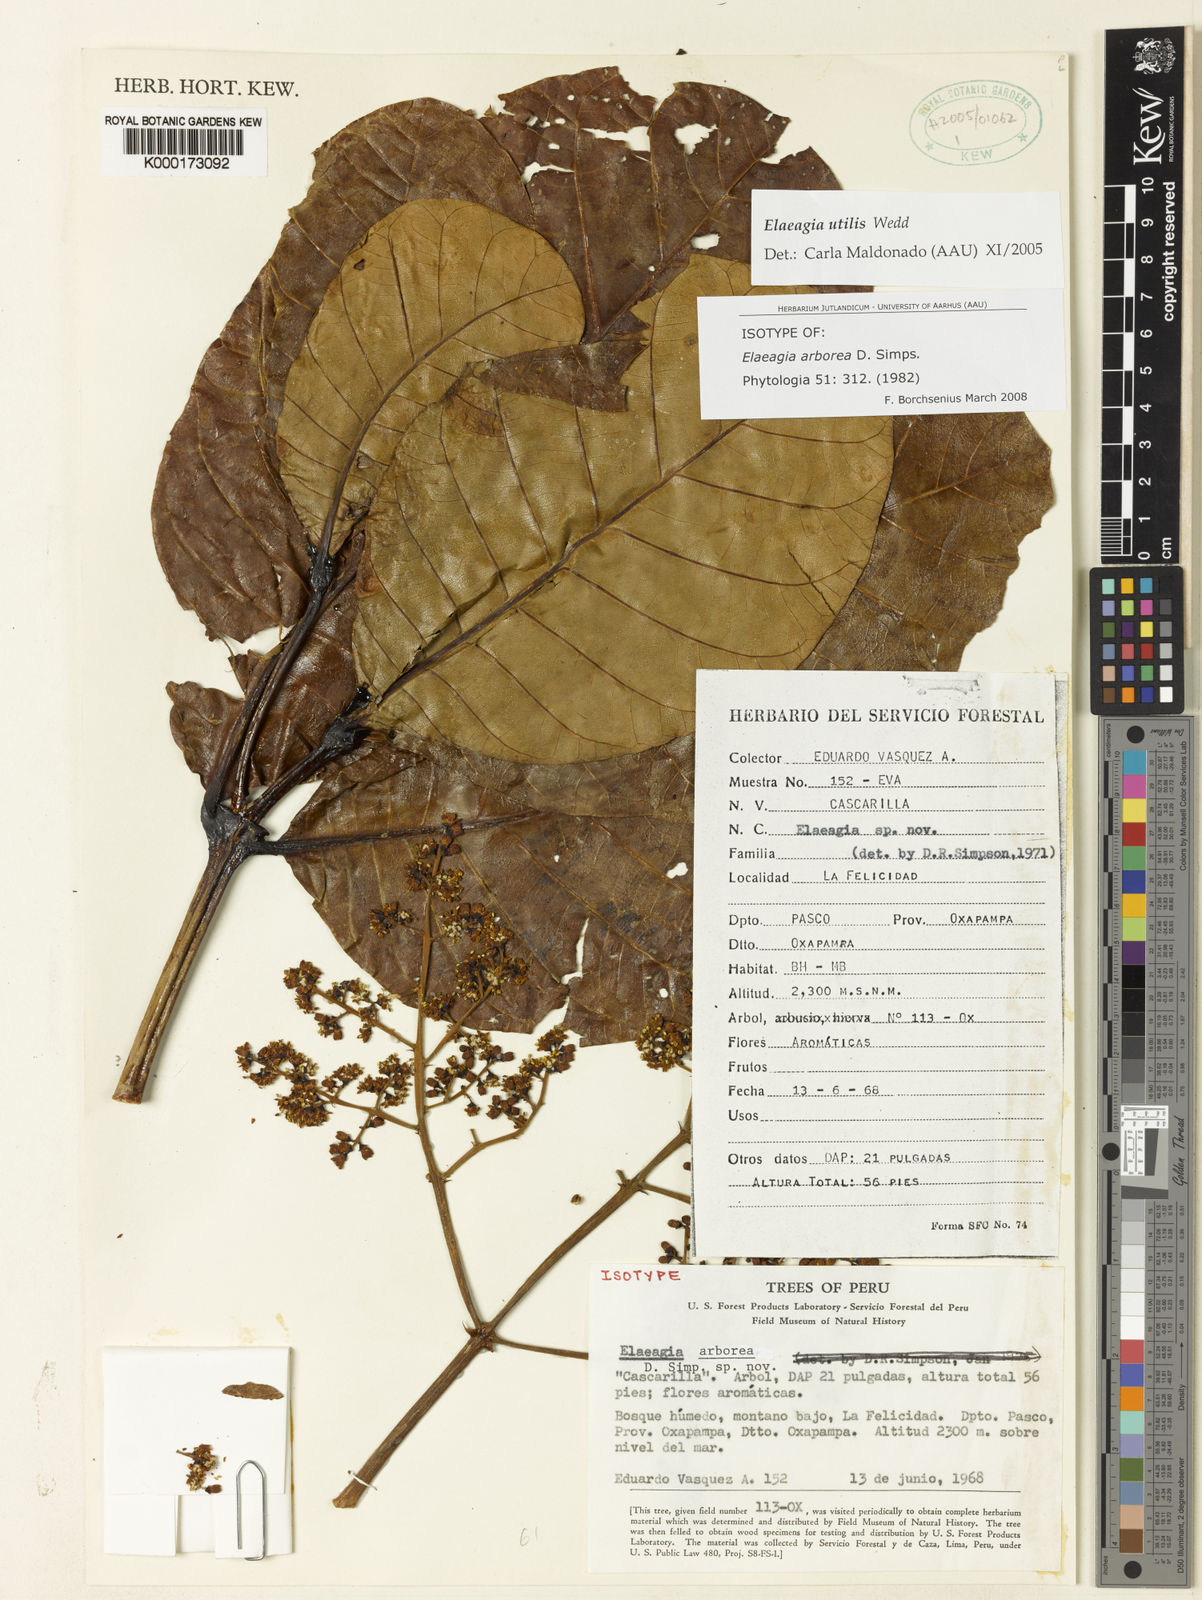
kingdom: Plantae
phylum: Tracheophyta
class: Magnoliopsida
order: Gentianales
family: Rubiaceae
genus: Elaeagia
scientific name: Elaeagia arborea
